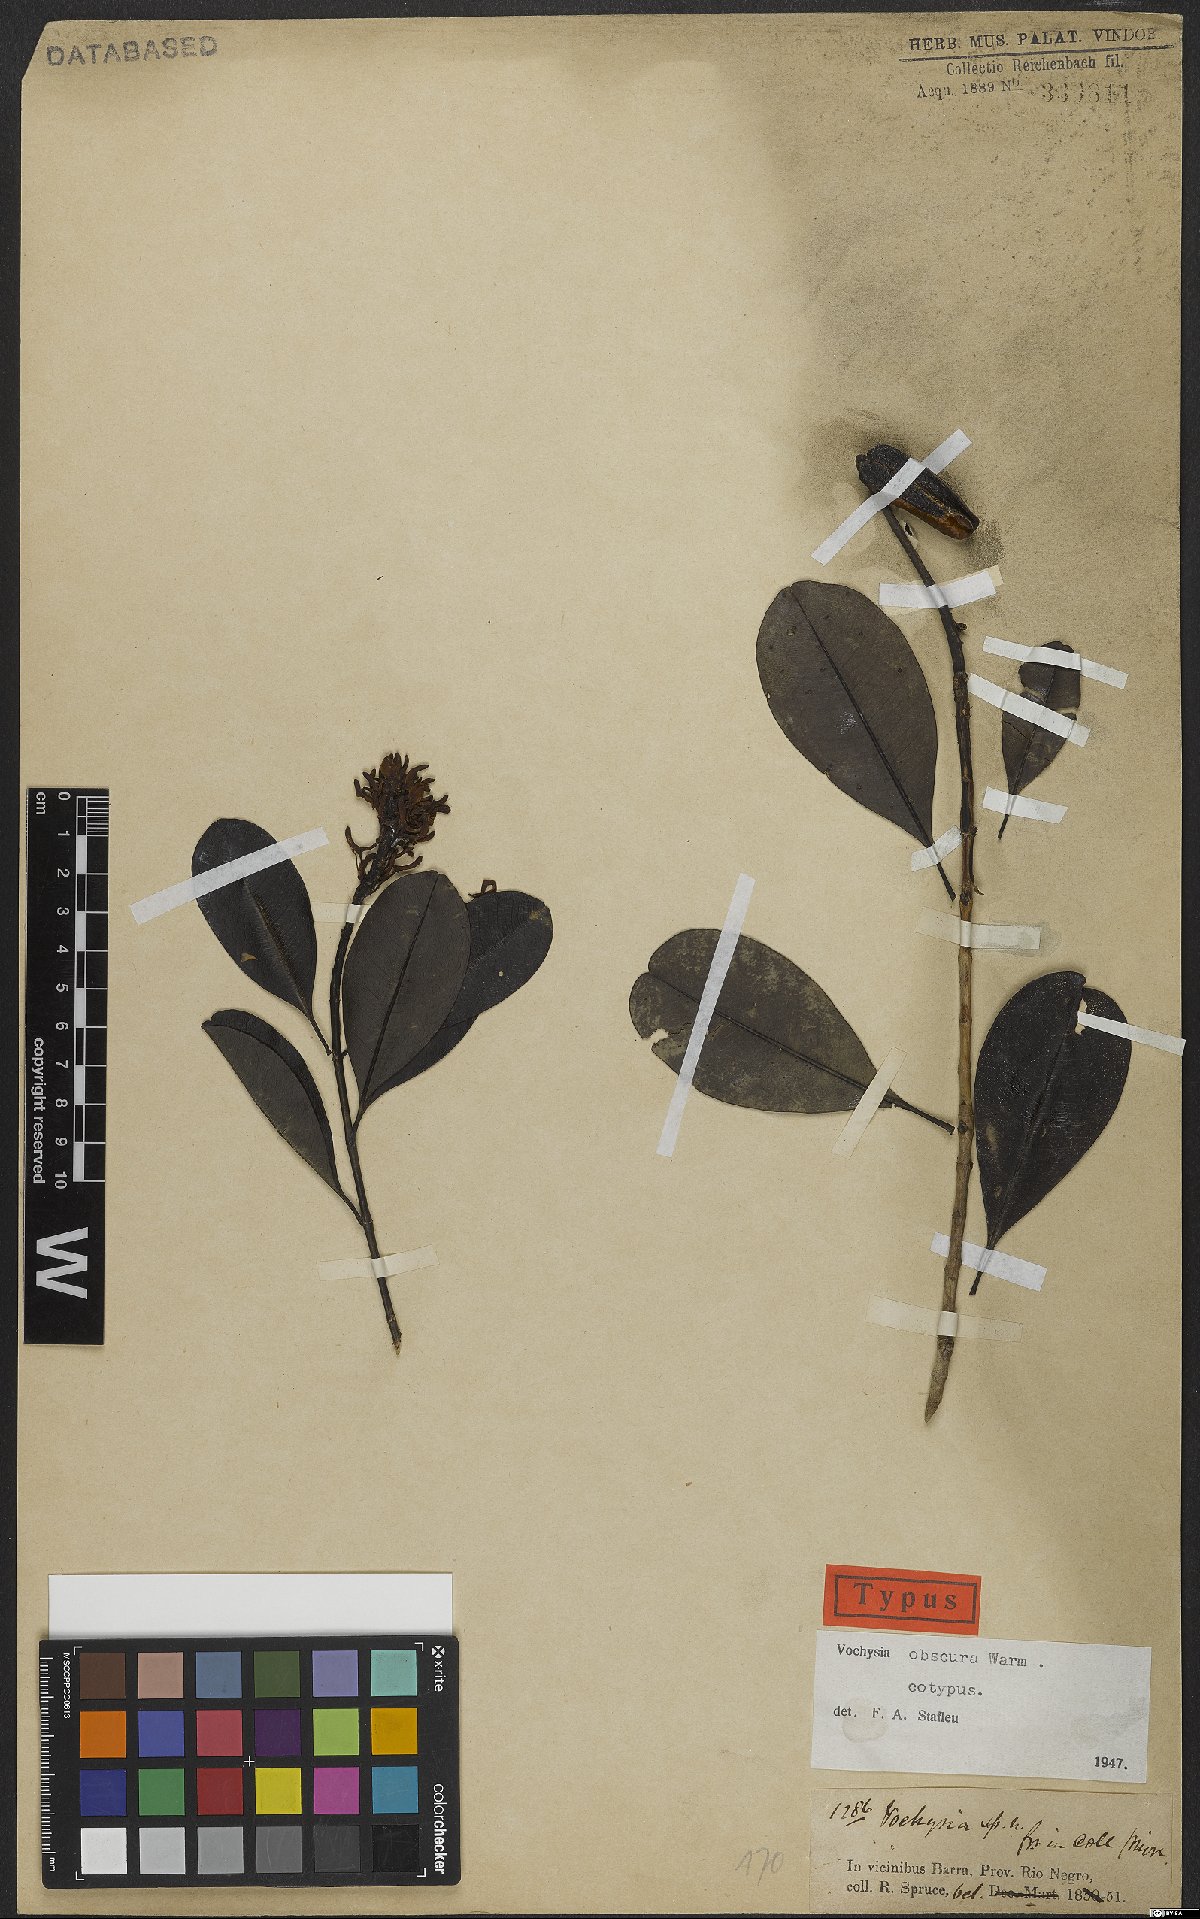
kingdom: Plantae
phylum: Tracheophyta
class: Magnoliopsida
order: Myrtales
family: Vochysiaceae
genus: Vochysia
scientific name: Vochysia obscura
